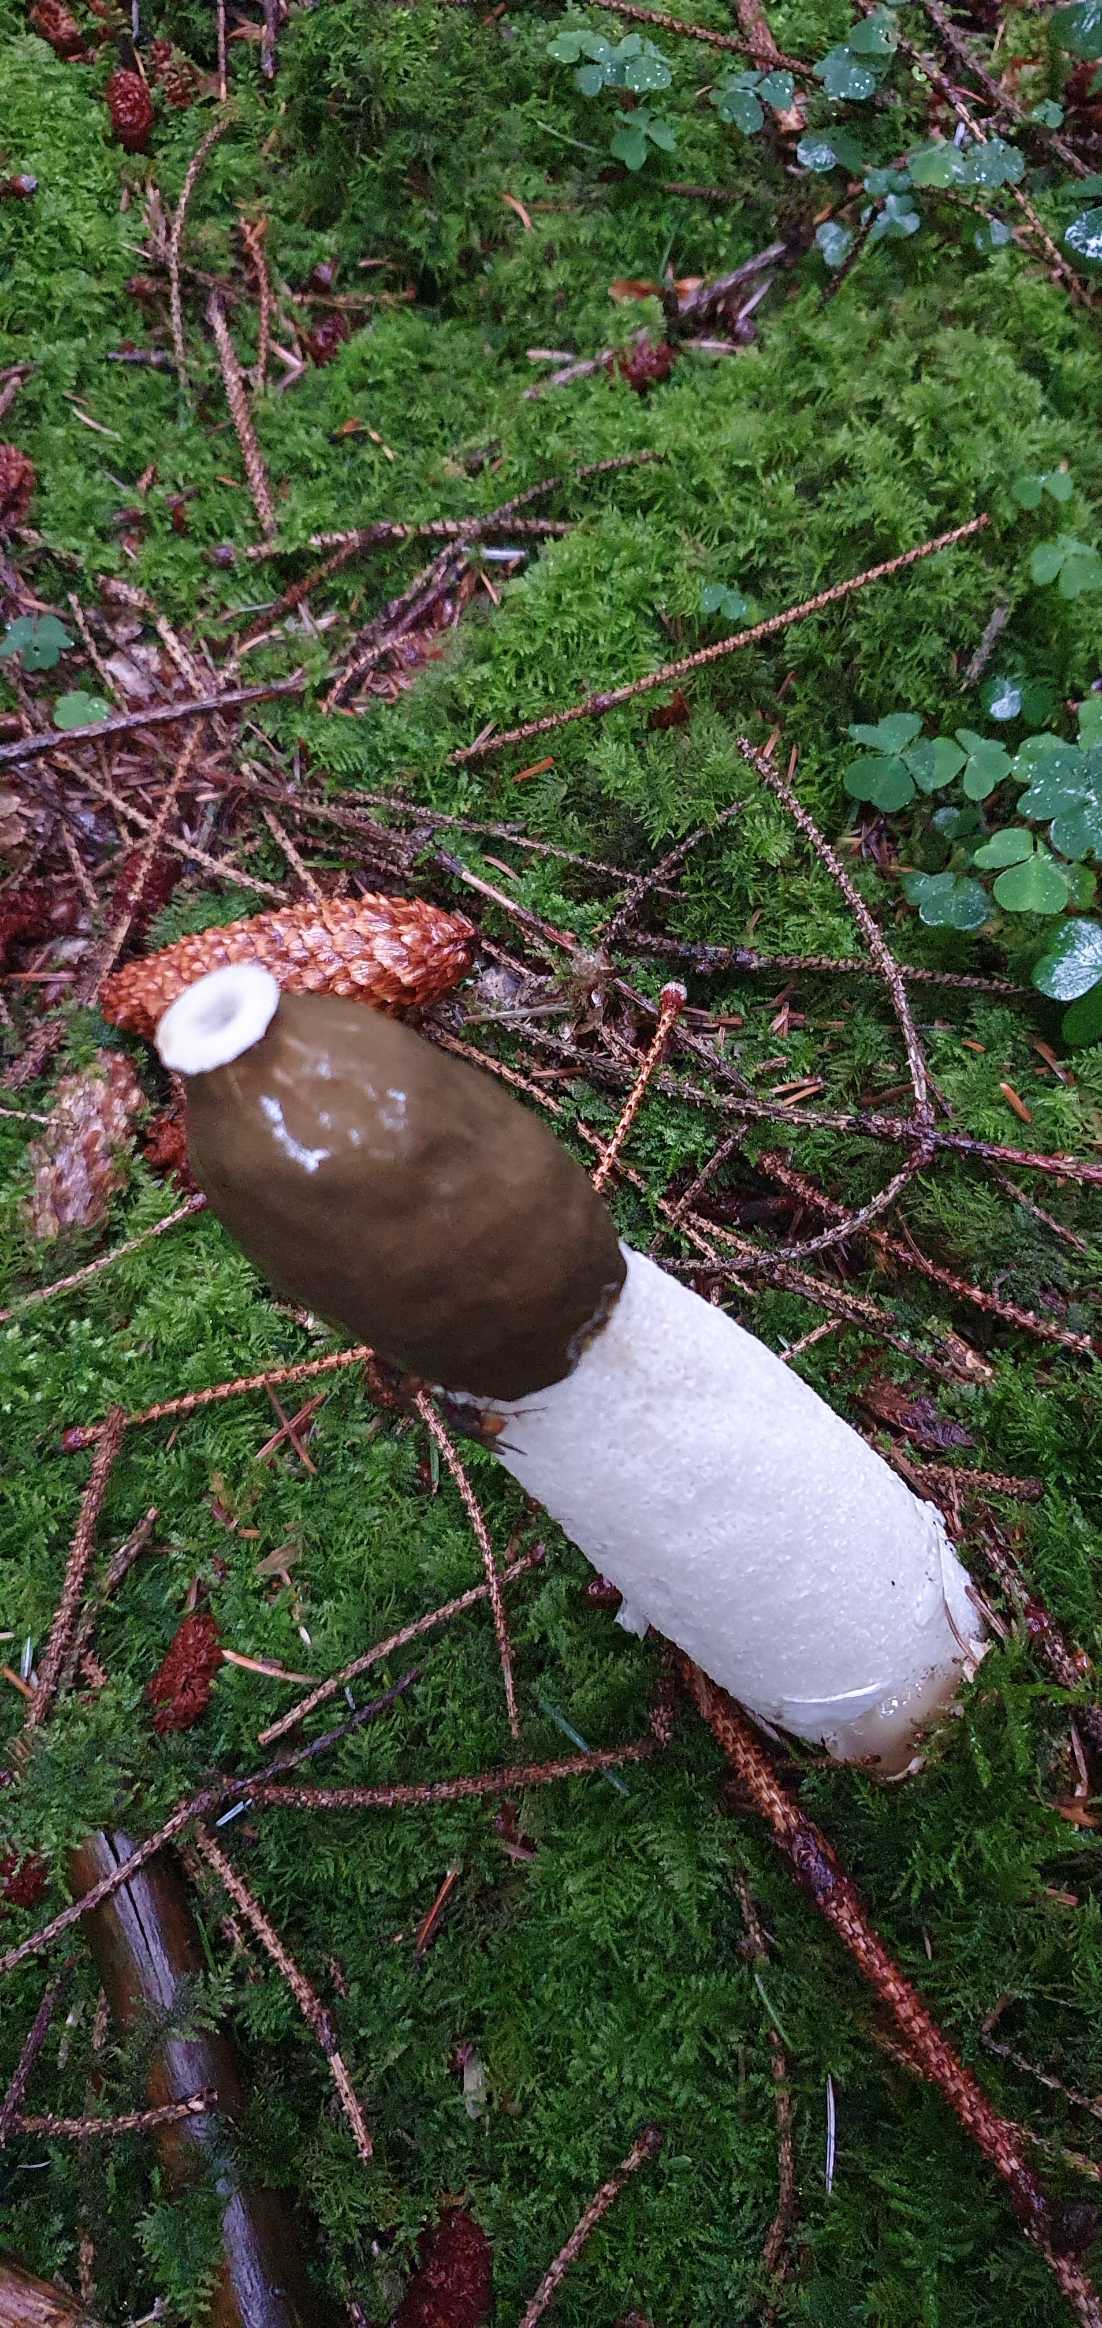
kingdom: Fungi
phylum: Basidiomycota
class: Agaricomycetes
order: Phallales
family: Phallaceae
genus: Phallus
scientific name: Phallus impudicus
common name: Almindelig stinksvamp
